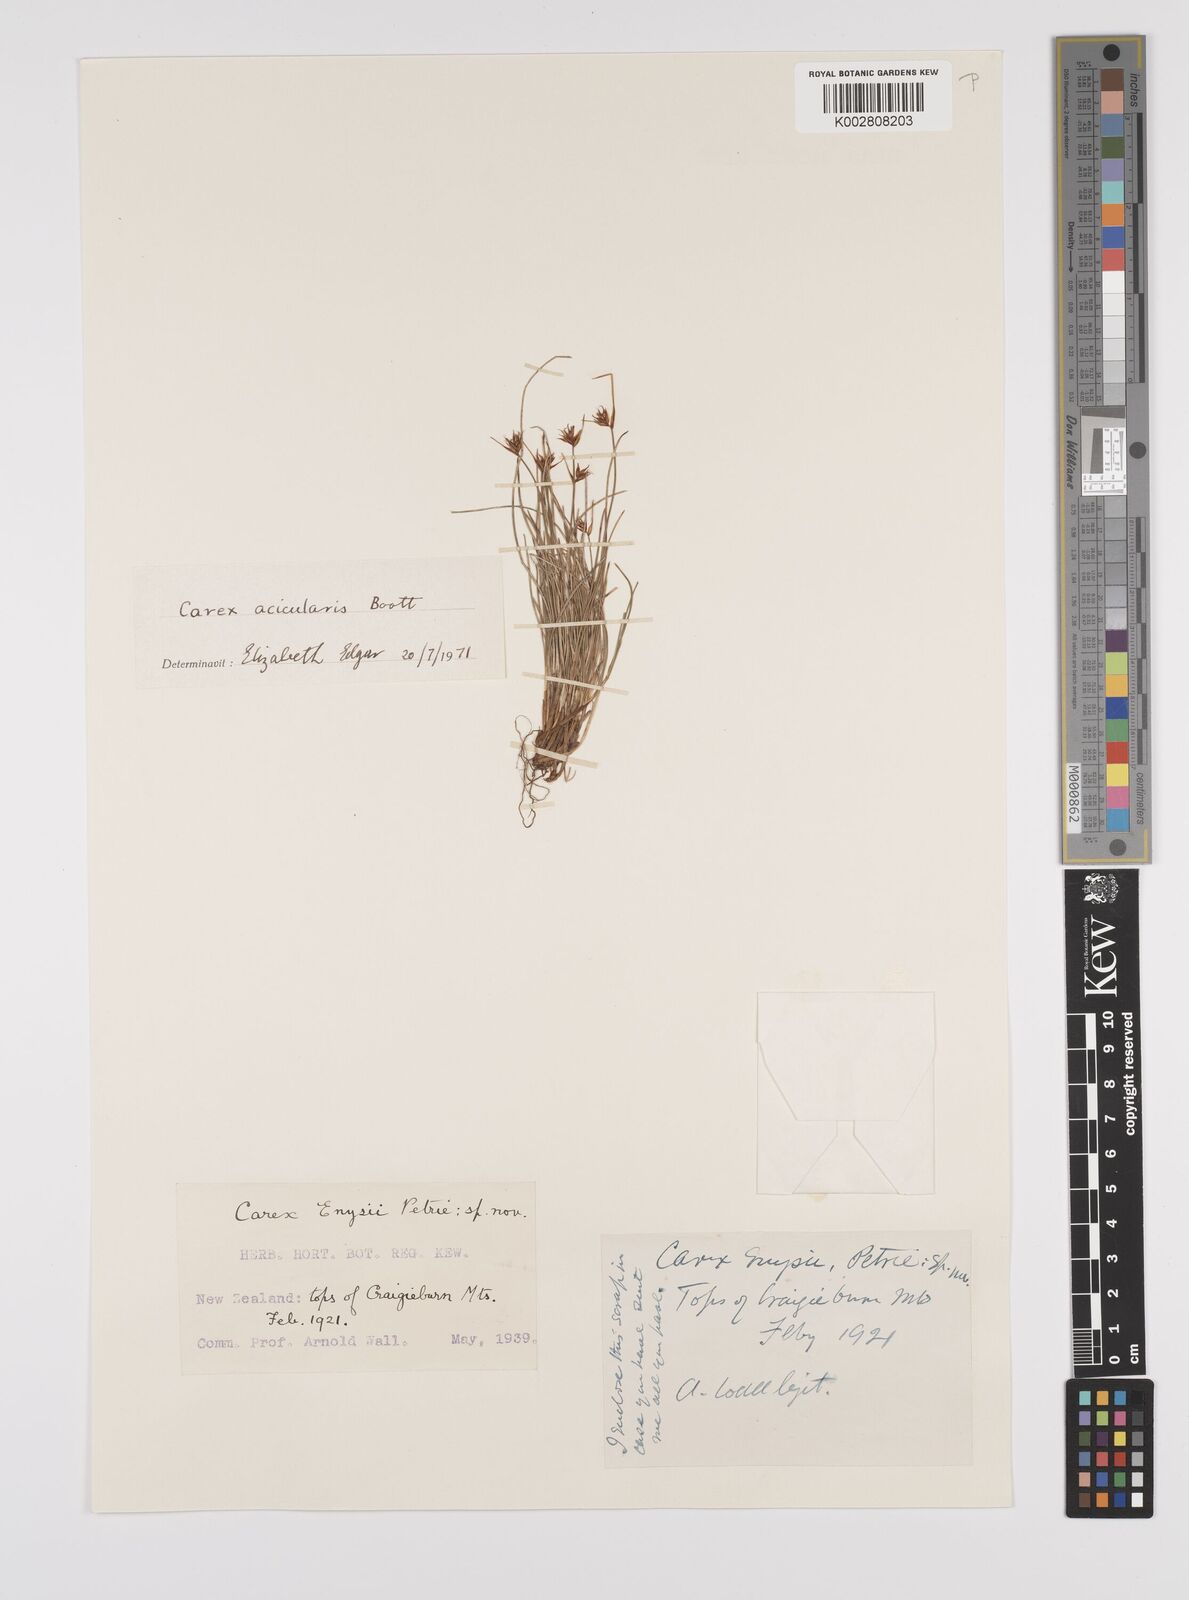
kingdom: Plantae
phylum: Tracheophyta
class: Liliopsida
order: Poales
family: Cyperaceae
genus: Carex
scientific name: Carex enysii
